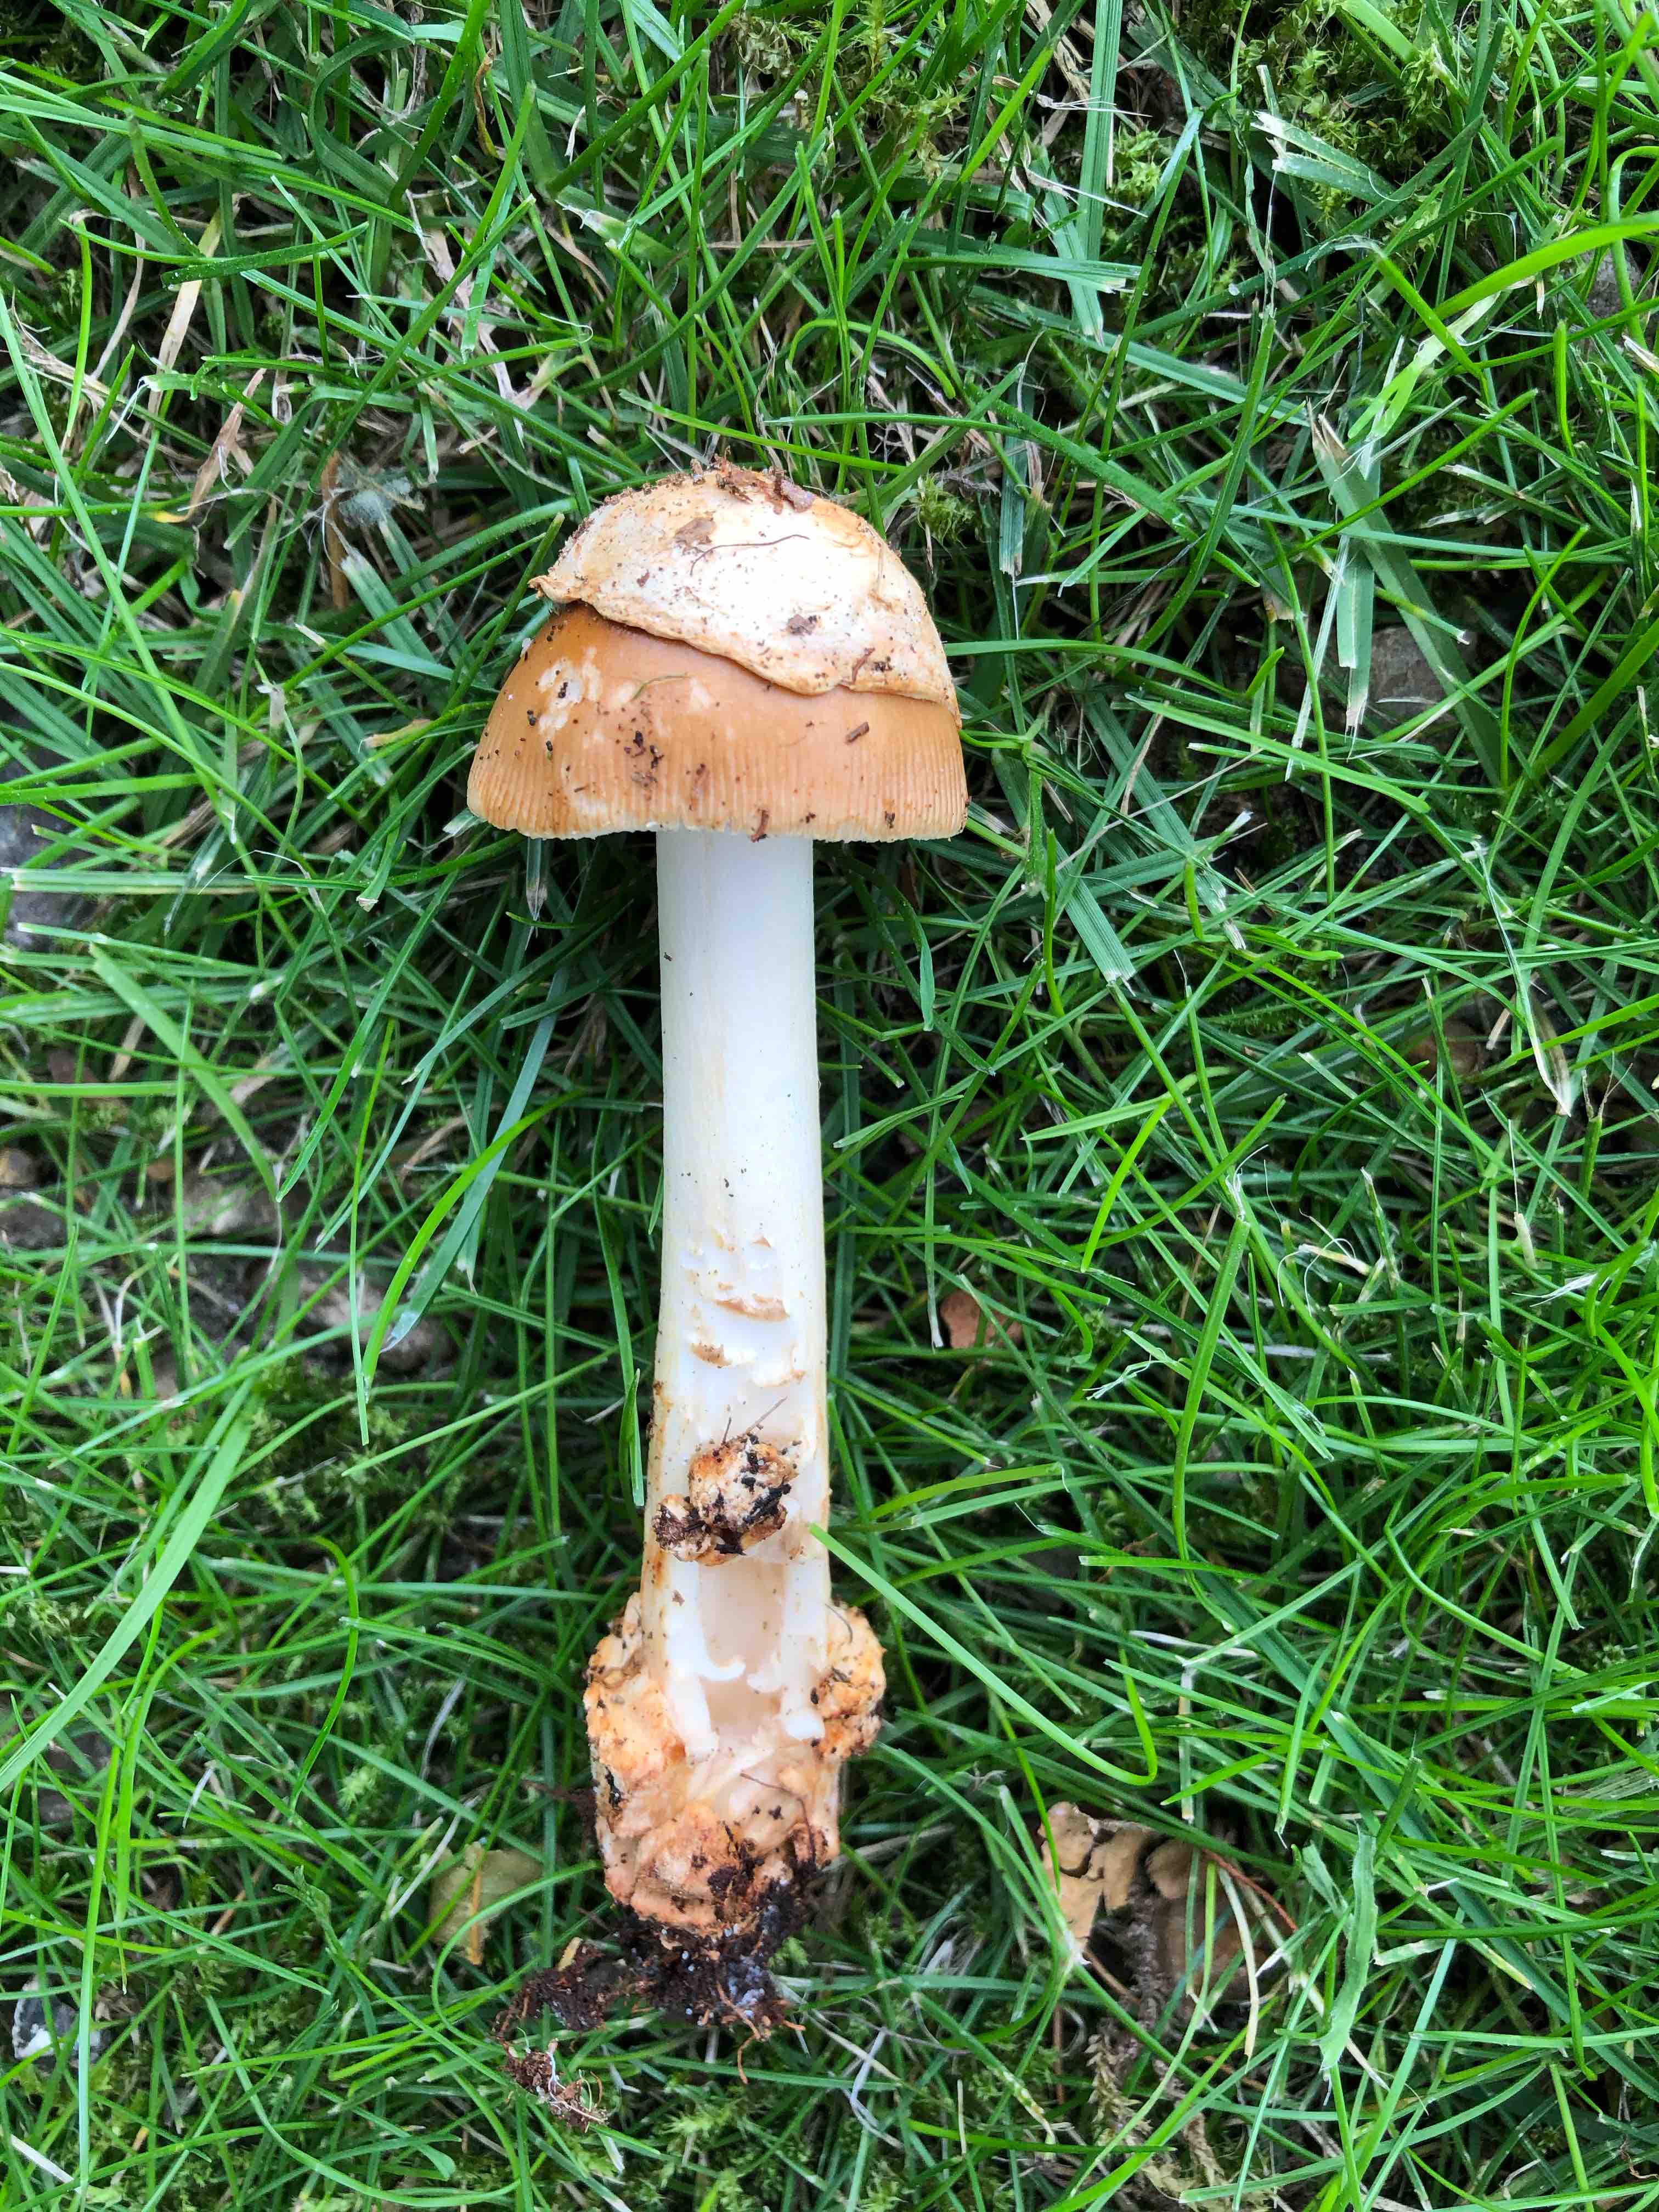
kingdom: Fungi
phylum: Basidiomycota
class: Agaricomycetes
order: Agaricales
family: Amanitaceae
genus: Amanita
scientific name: Amanita fulva
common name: brun kam-fluesvamp
